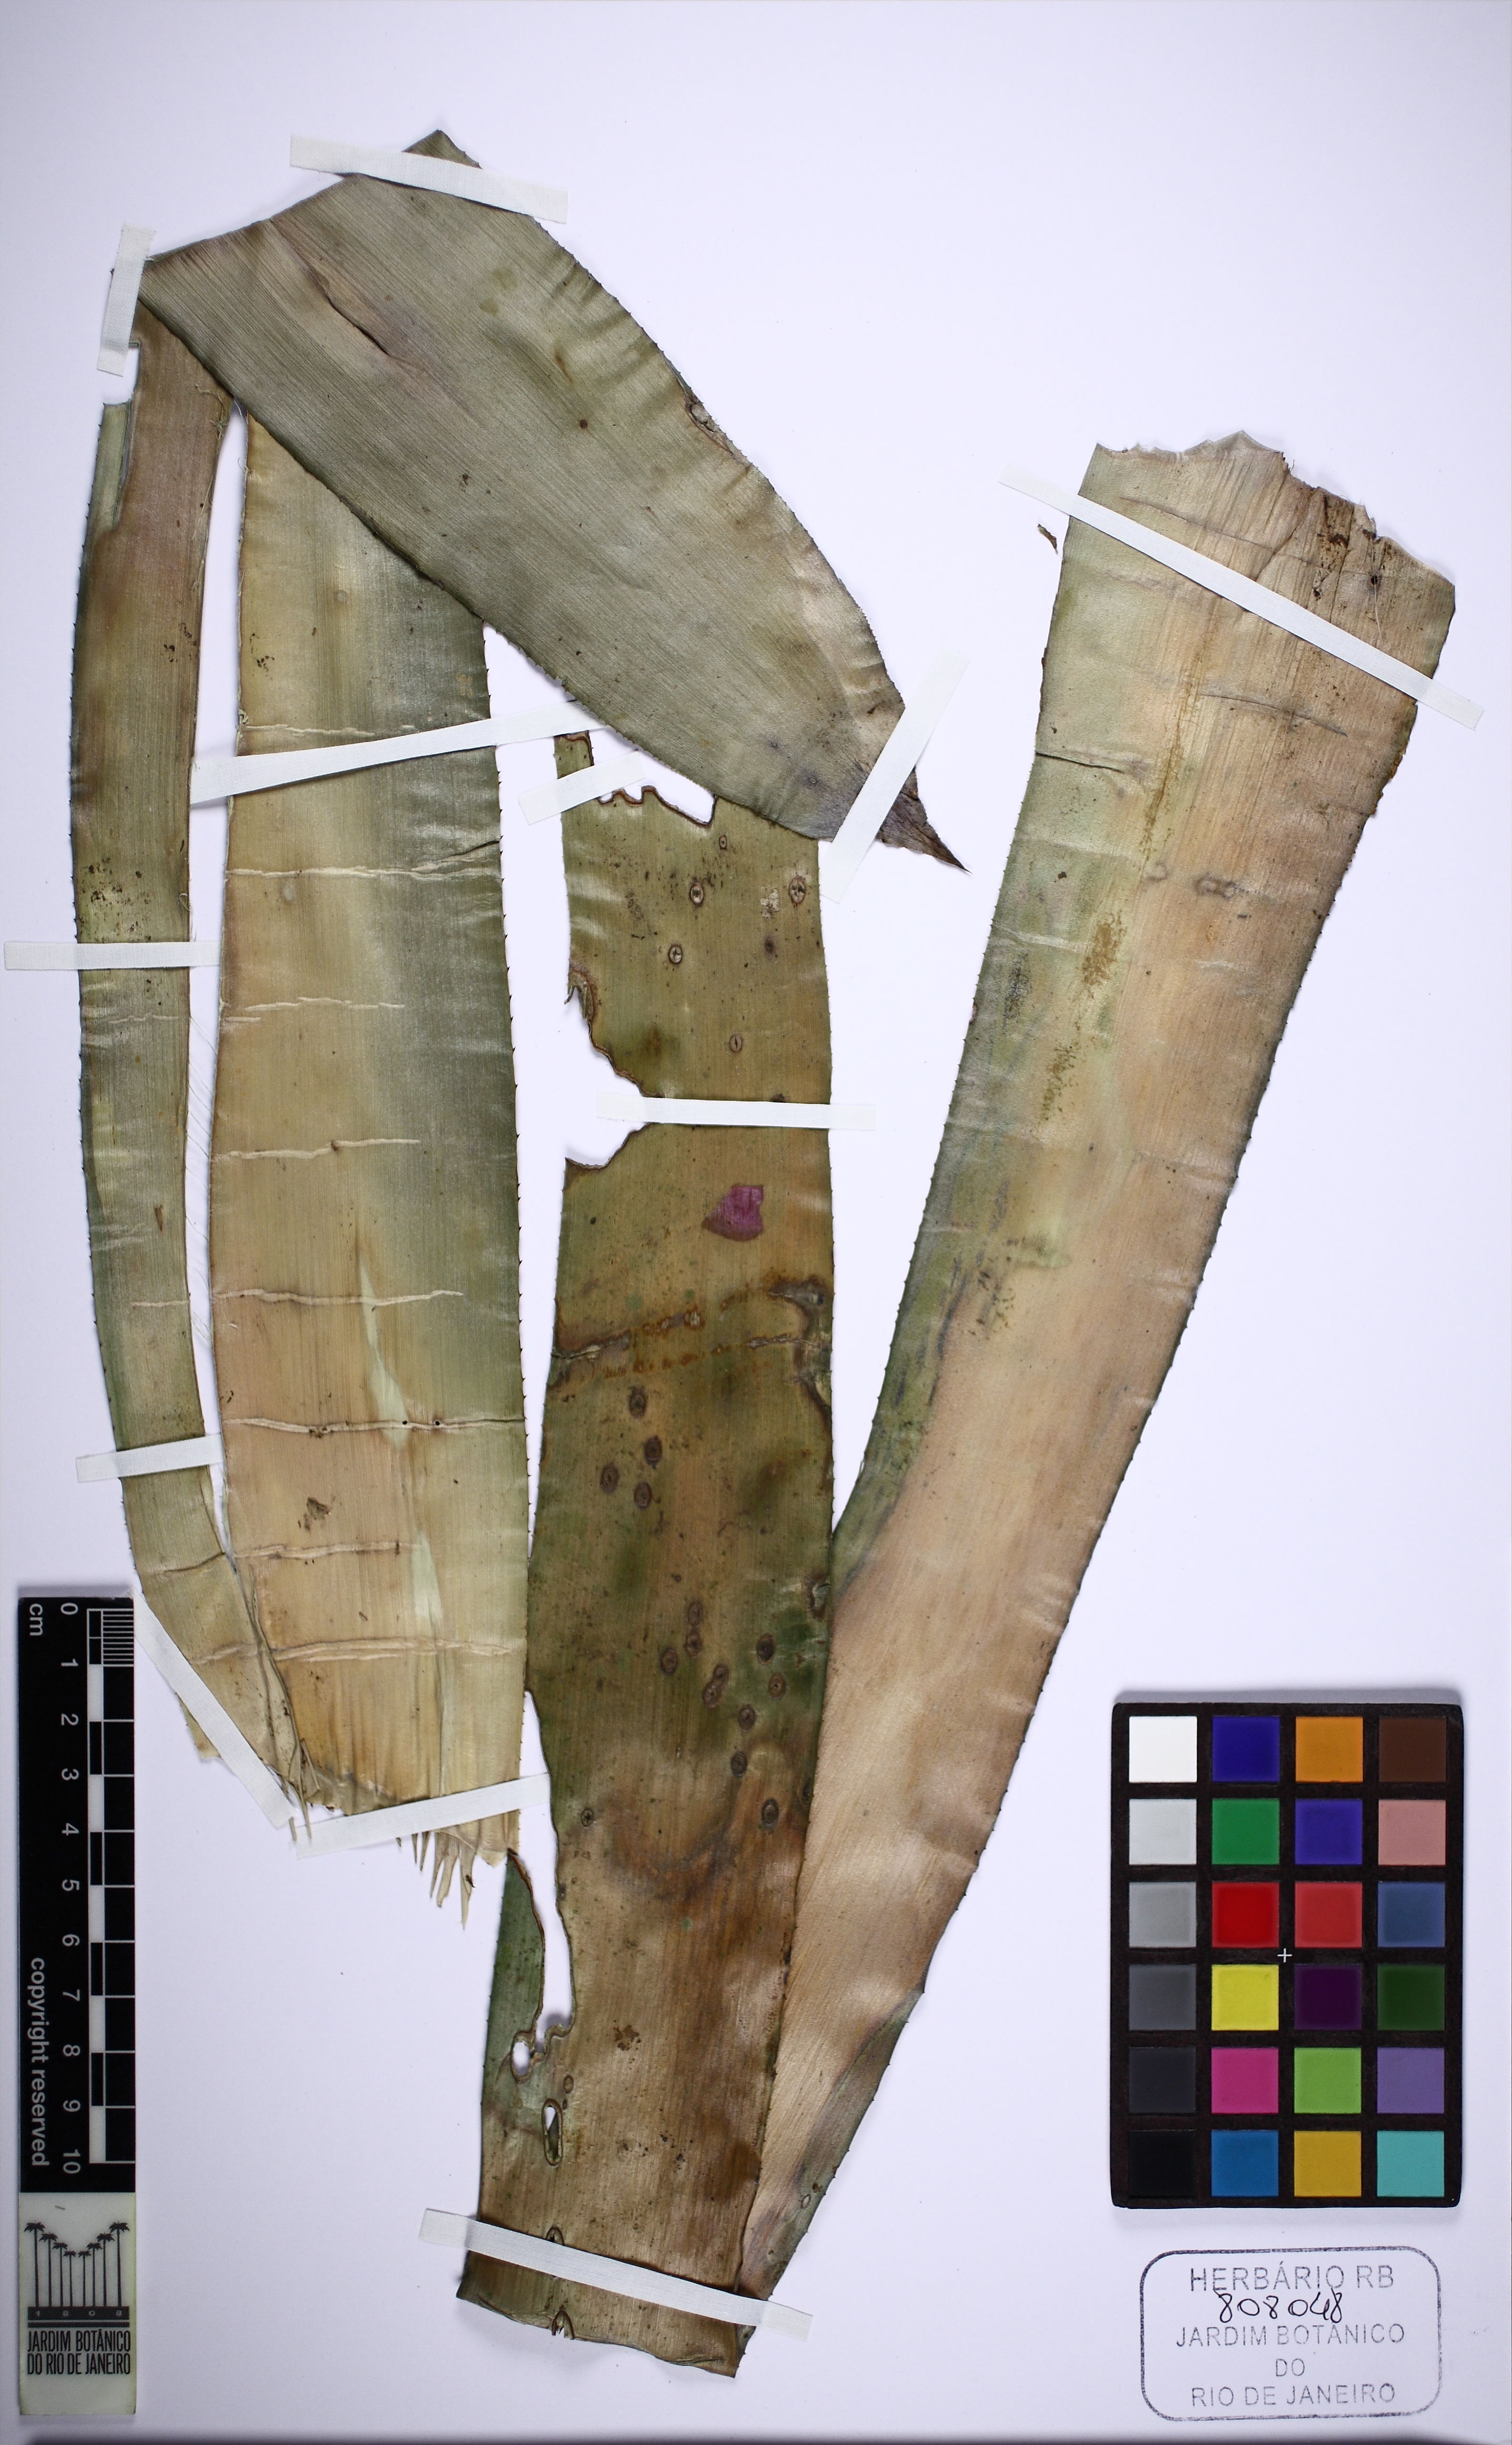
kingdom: Plantae
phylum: Tracheophyta
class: Liliopsida
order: Poales
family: Bromeliaceae
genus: Aechmea
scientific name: Aechmea winkleri
